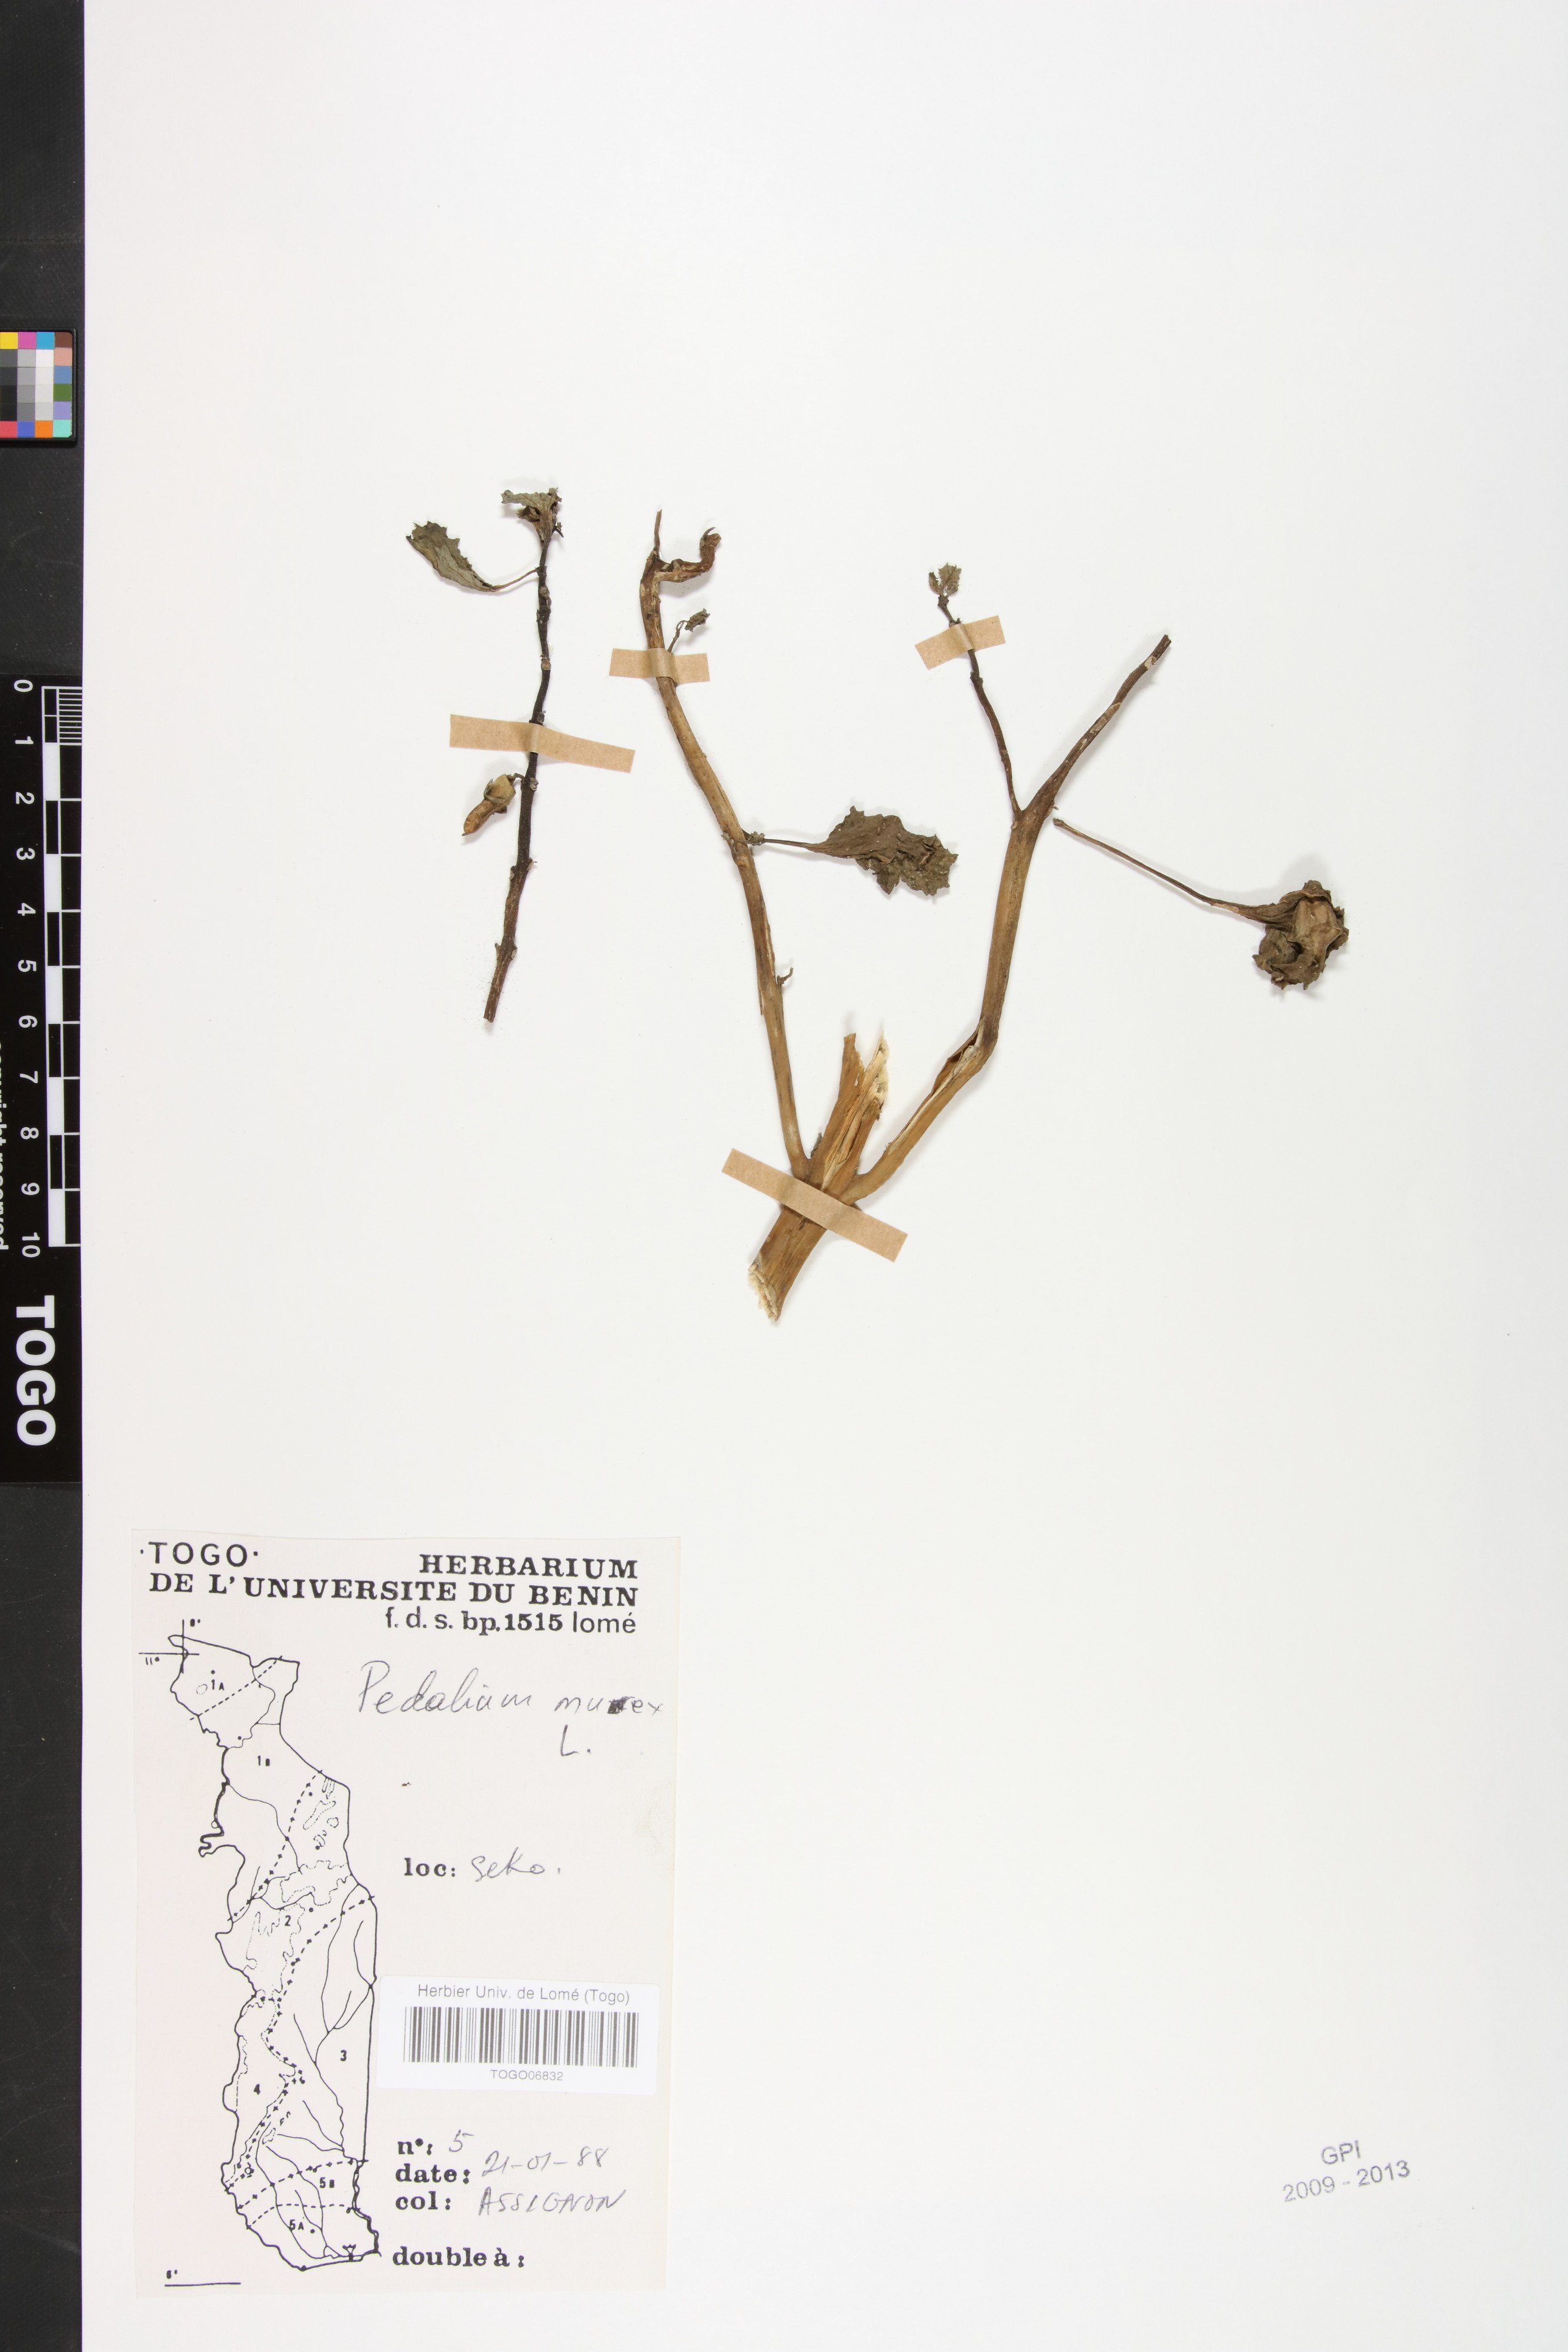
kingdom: Plantae
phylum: Tracheophyta
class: Magnoliopsida
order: Lamiales
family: Pedaliaceae
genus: Pedalium
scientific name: Pedalium murex
